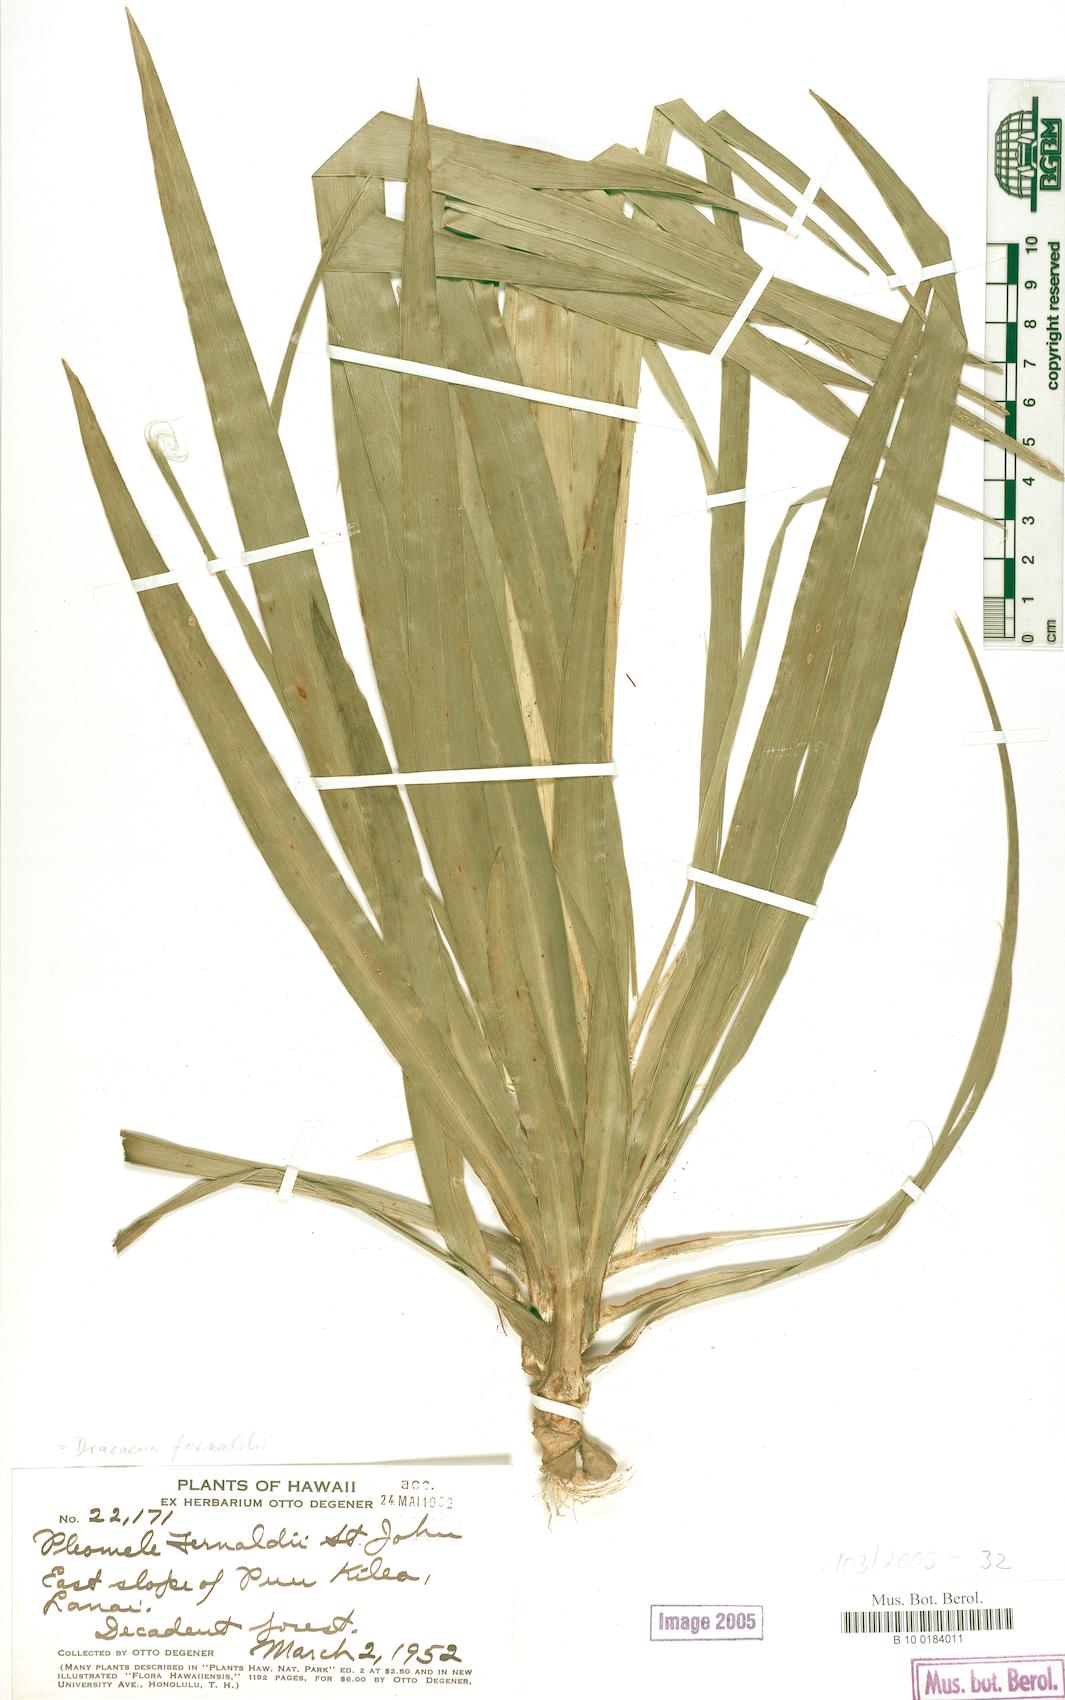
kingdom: Plantae
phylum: Tracheophyta
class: Liliopsida
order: Asparagales
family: Asparagaceae
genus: Dracaena
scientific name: Dracaena fernaldii
